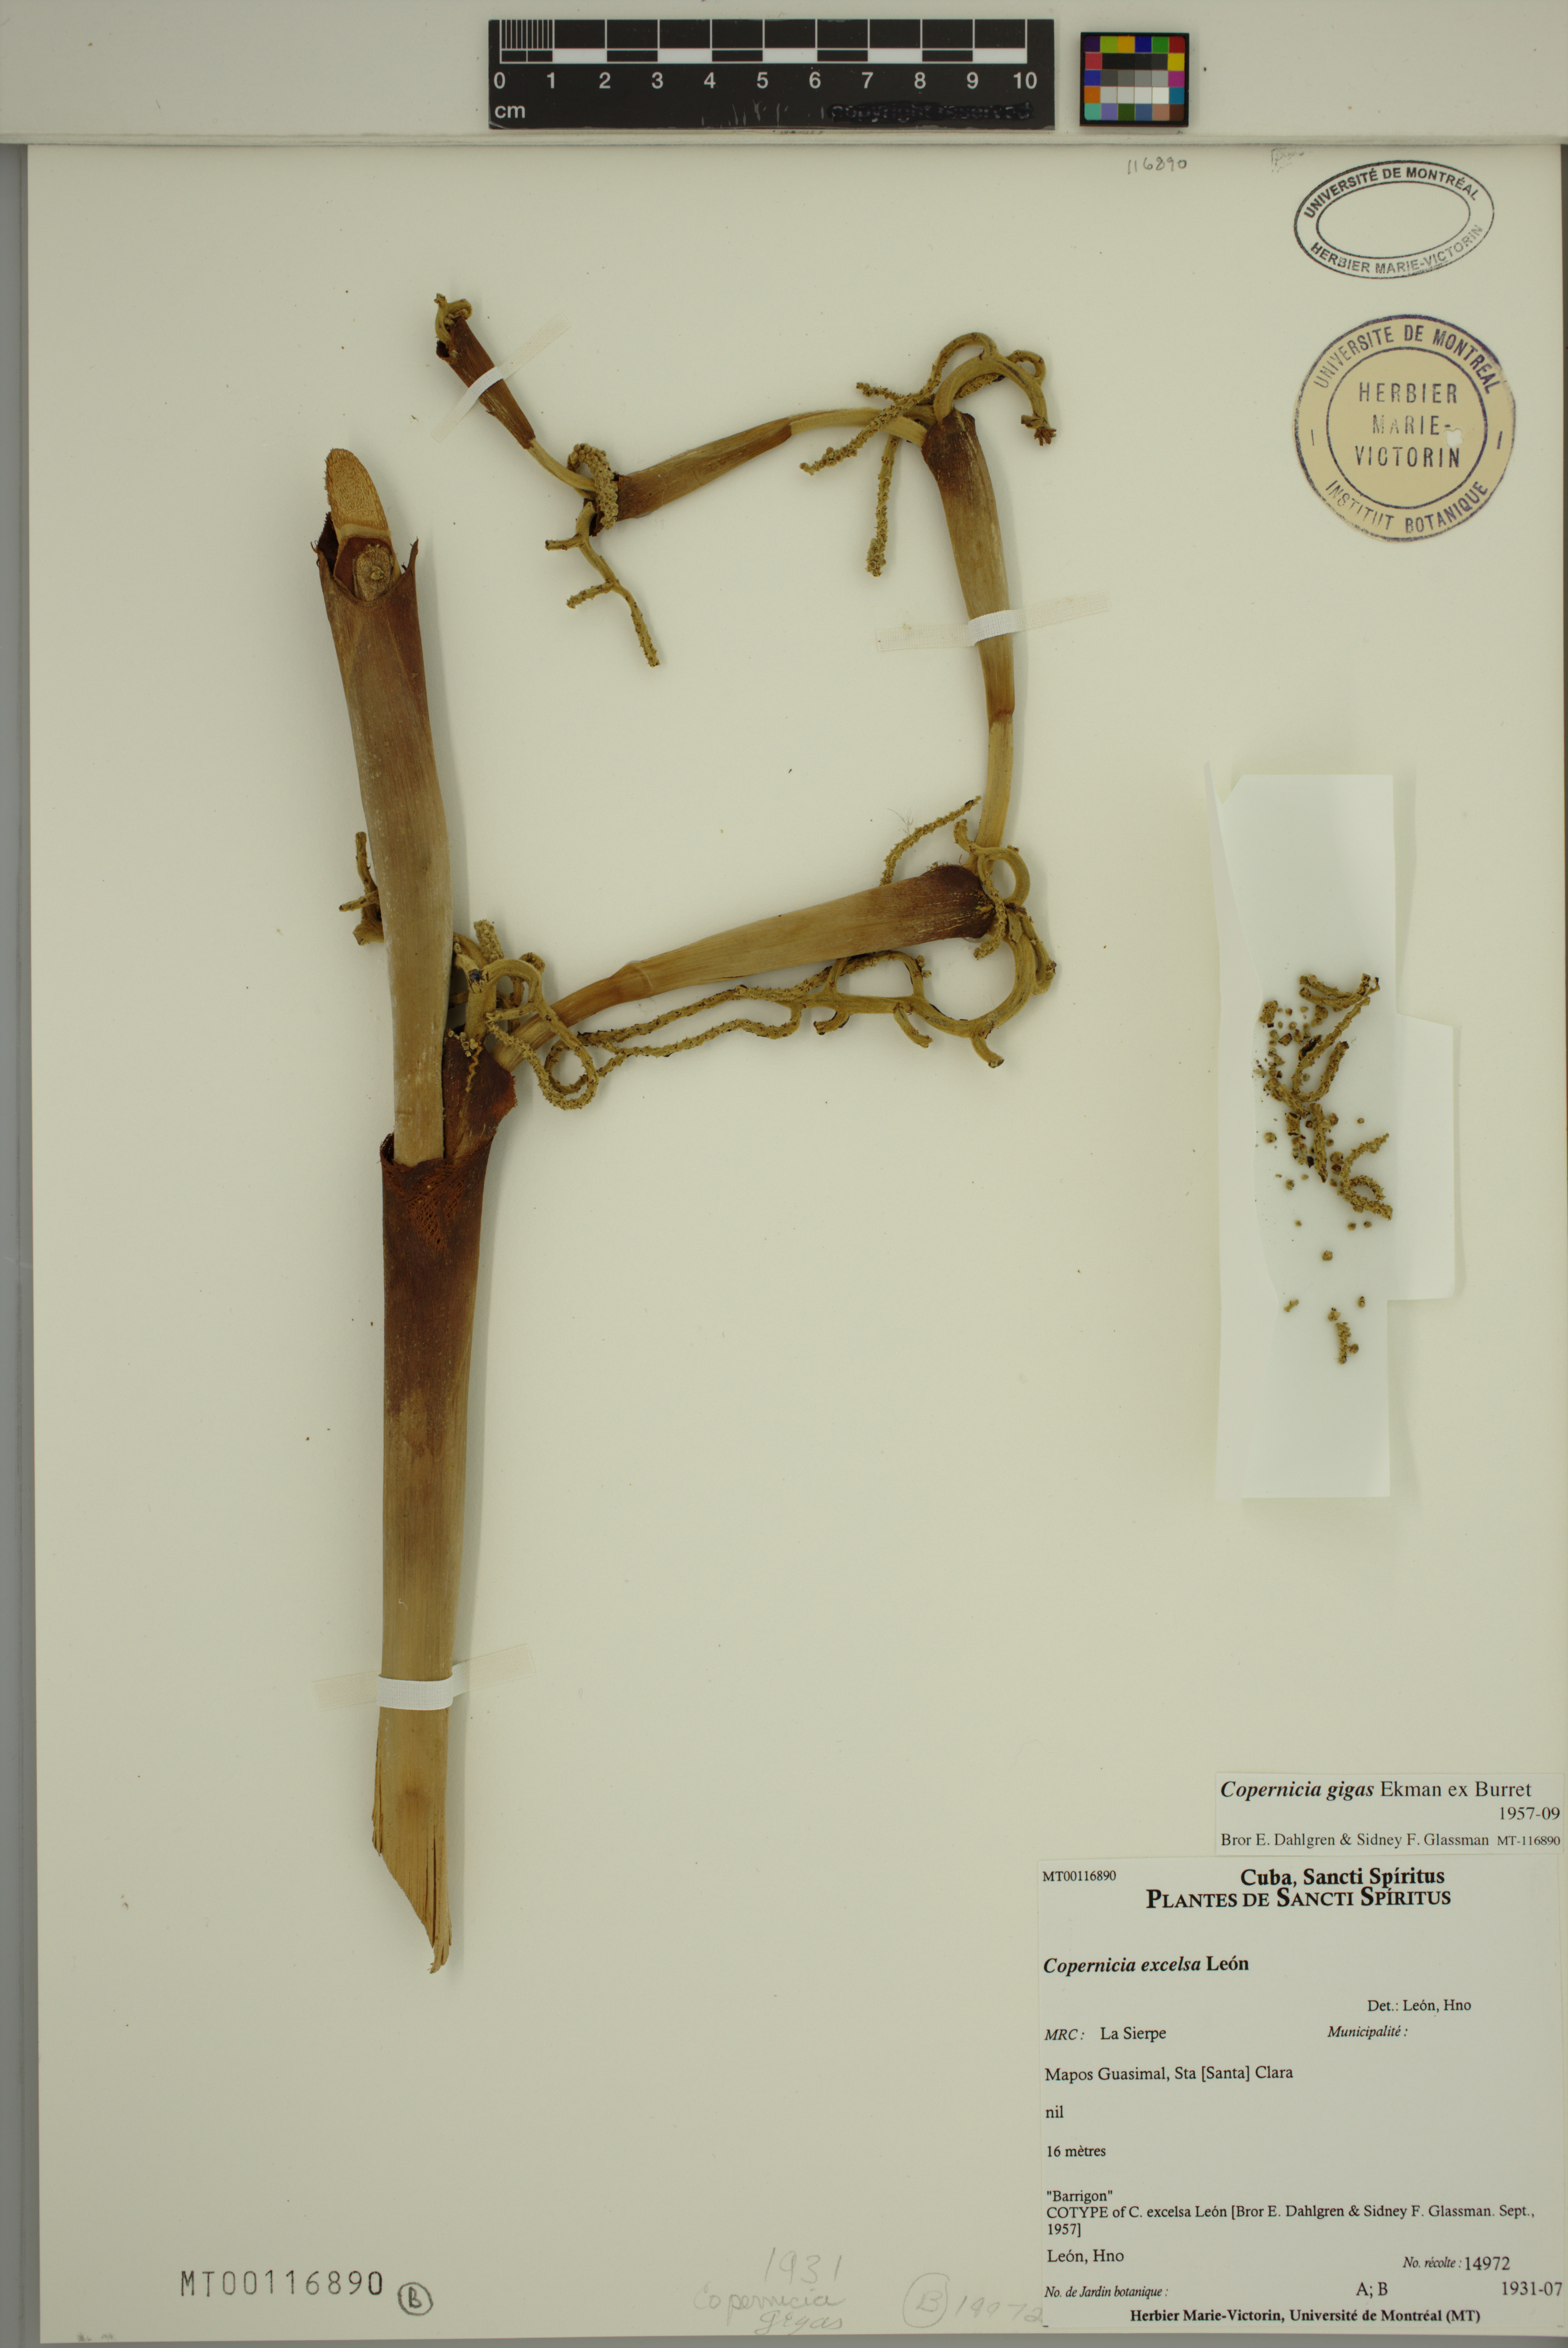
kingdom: Plantae
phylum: Tracheophyta
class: Liliopsida
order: Arecales
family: Arecaceae
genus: Copernicia
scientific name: Copernicia gigas
